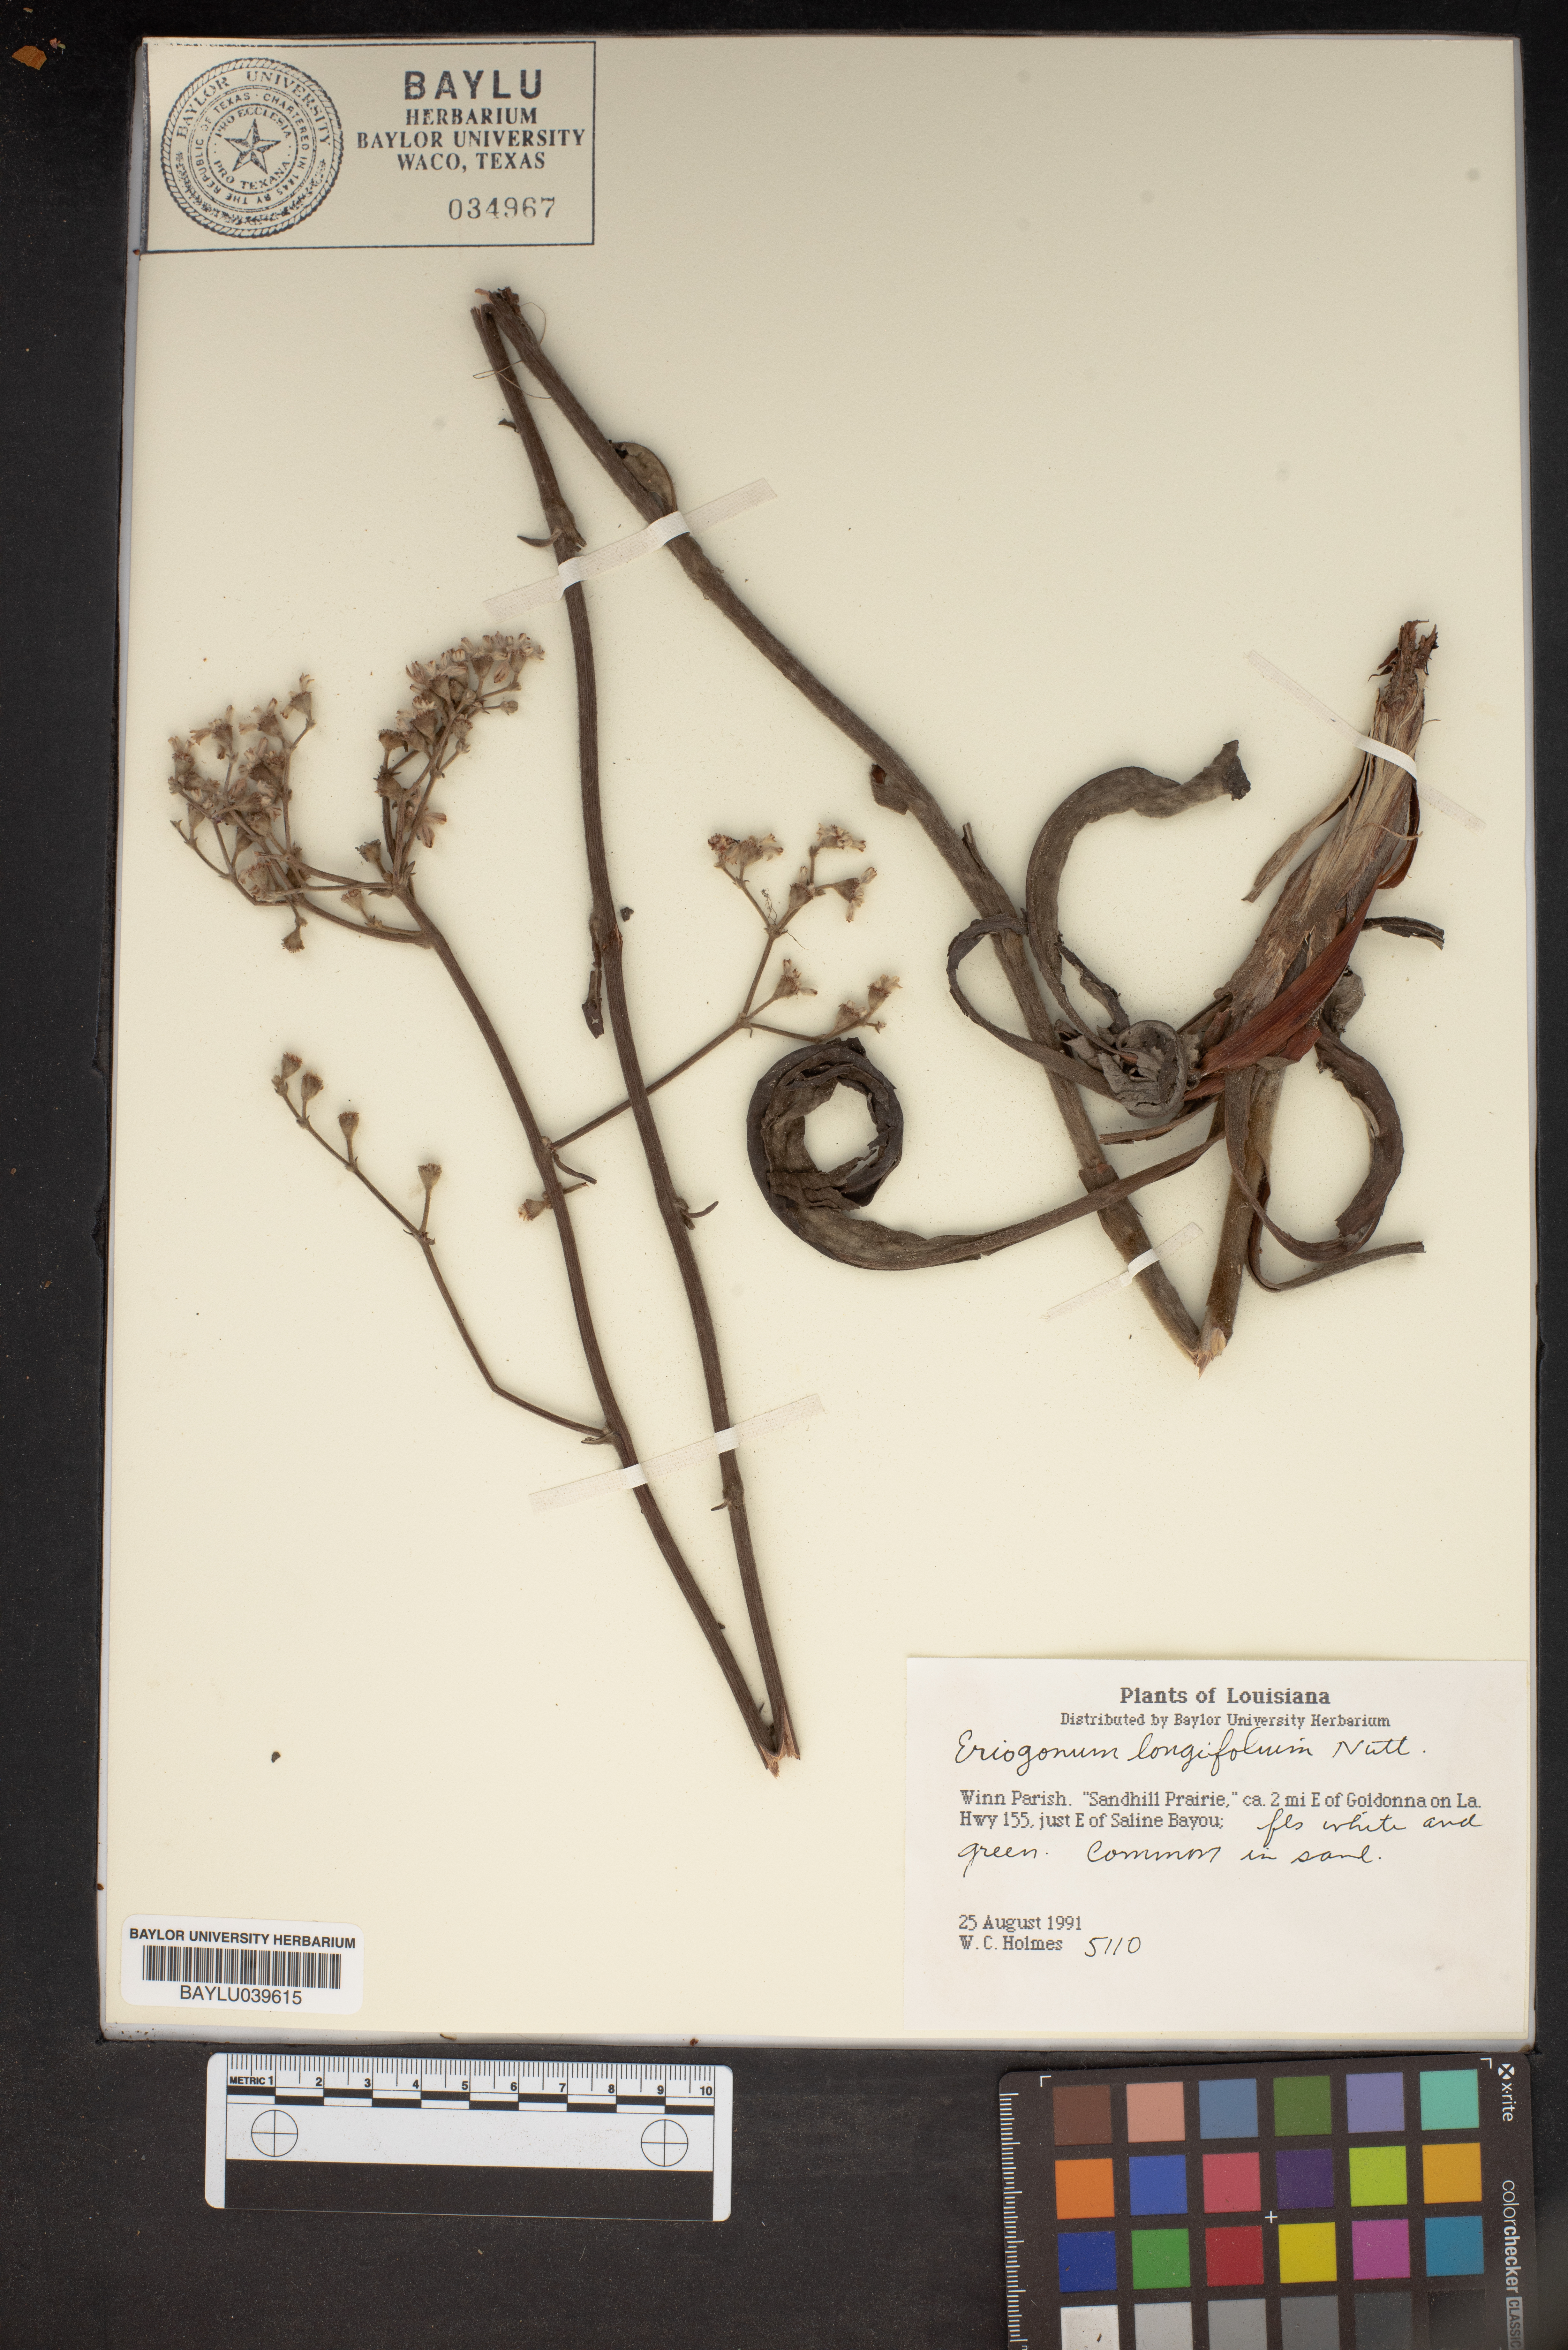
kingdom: Plantae
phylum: Tracheophyta
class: Magnoliopsida
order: Caryophyllales
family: Polygonaceae
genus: Eriogonum
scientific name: Eriogonum longifolium
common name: Longleaf wild buckwheat
